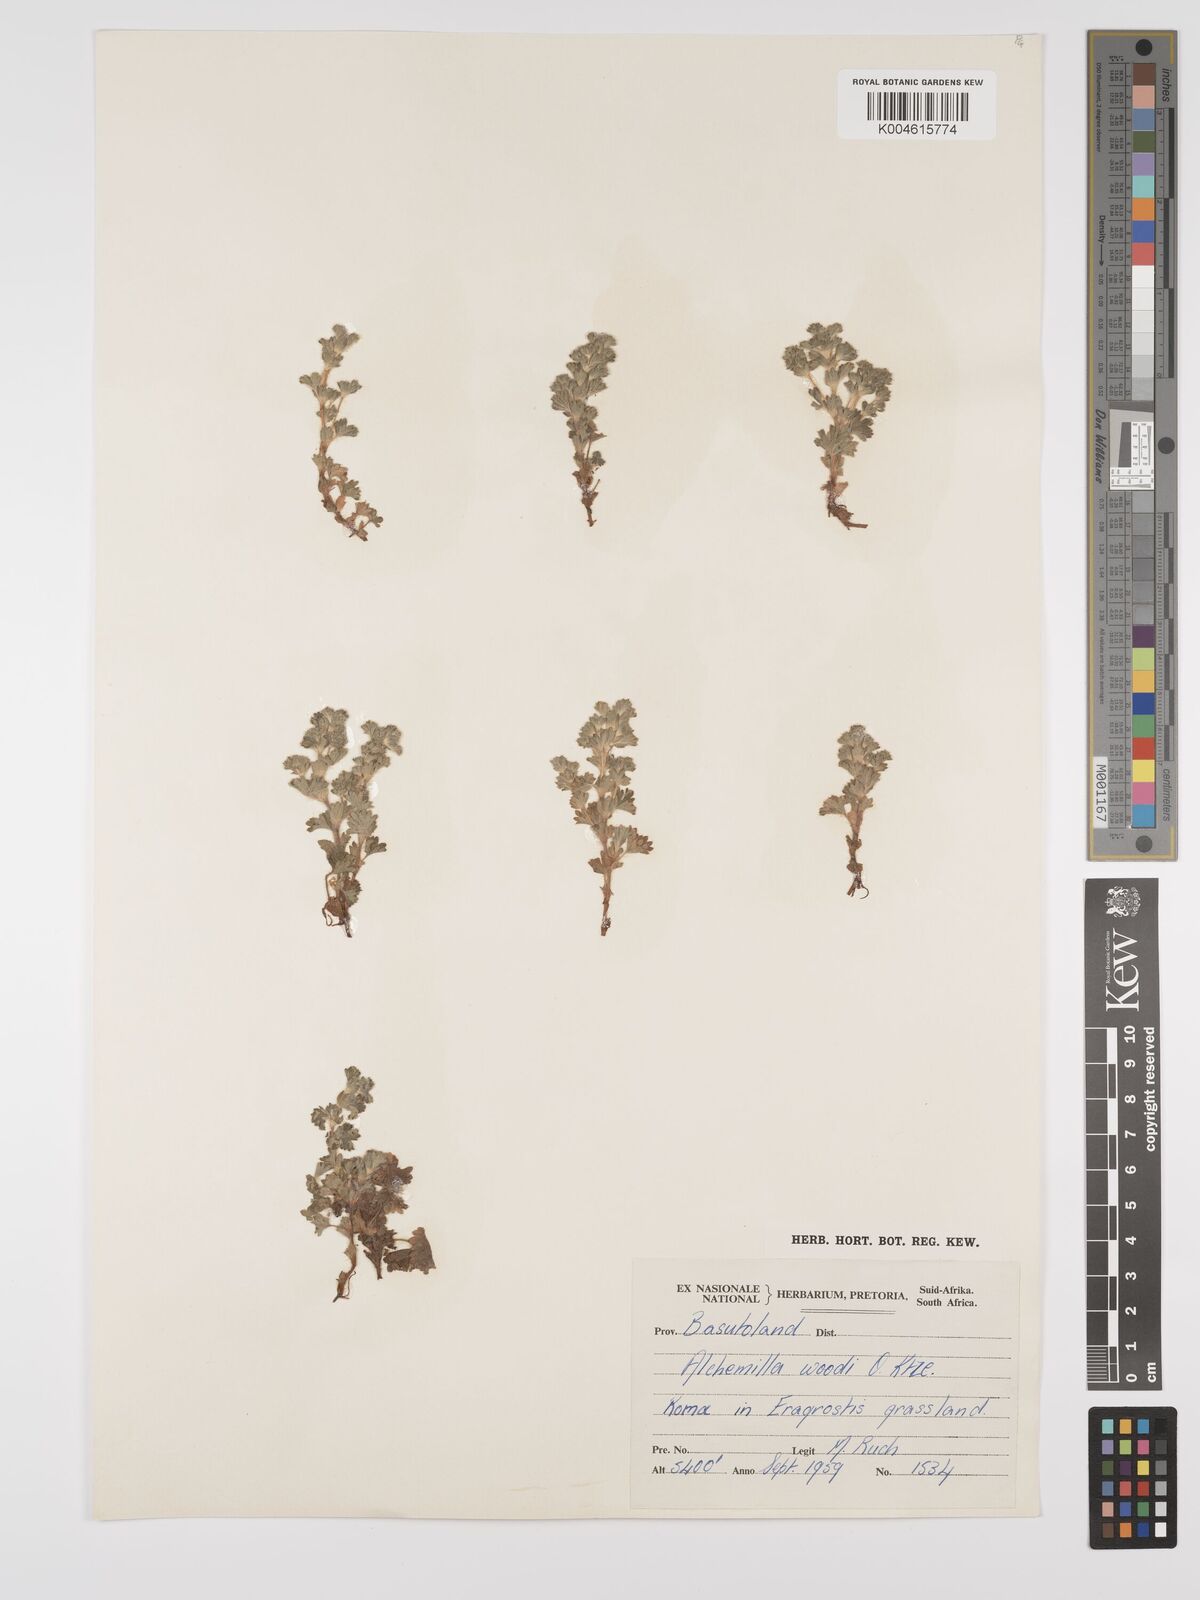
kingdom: Plantae
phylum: Tracheophyta
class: Magnoliopsida
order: Rosales
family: Rosaceae
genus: Alchemilla
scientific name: Alchemilla woodii
